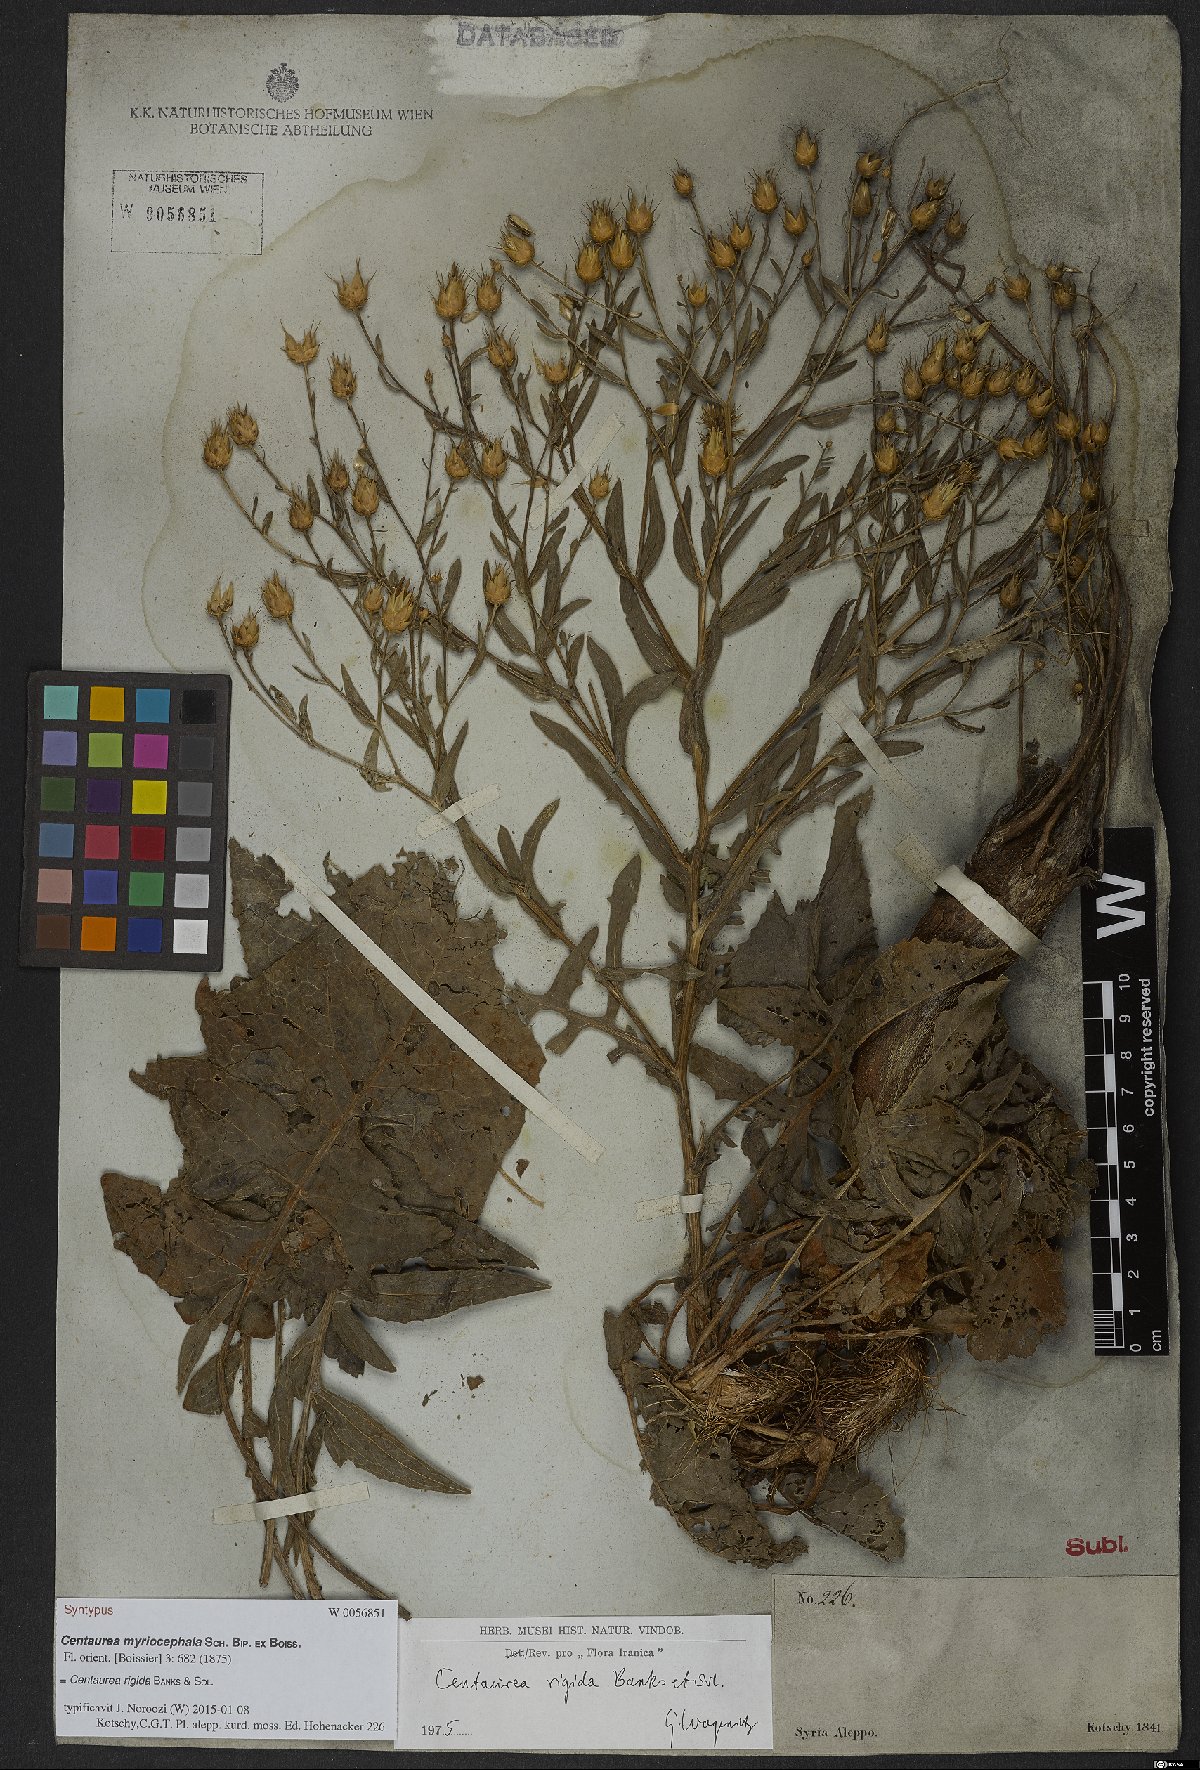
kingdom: Plantae
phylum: Tracheophyta
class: Magnoliopsida
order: Asterales
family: Asteraceae
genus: Centaurea
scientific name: Centaurea rigida
